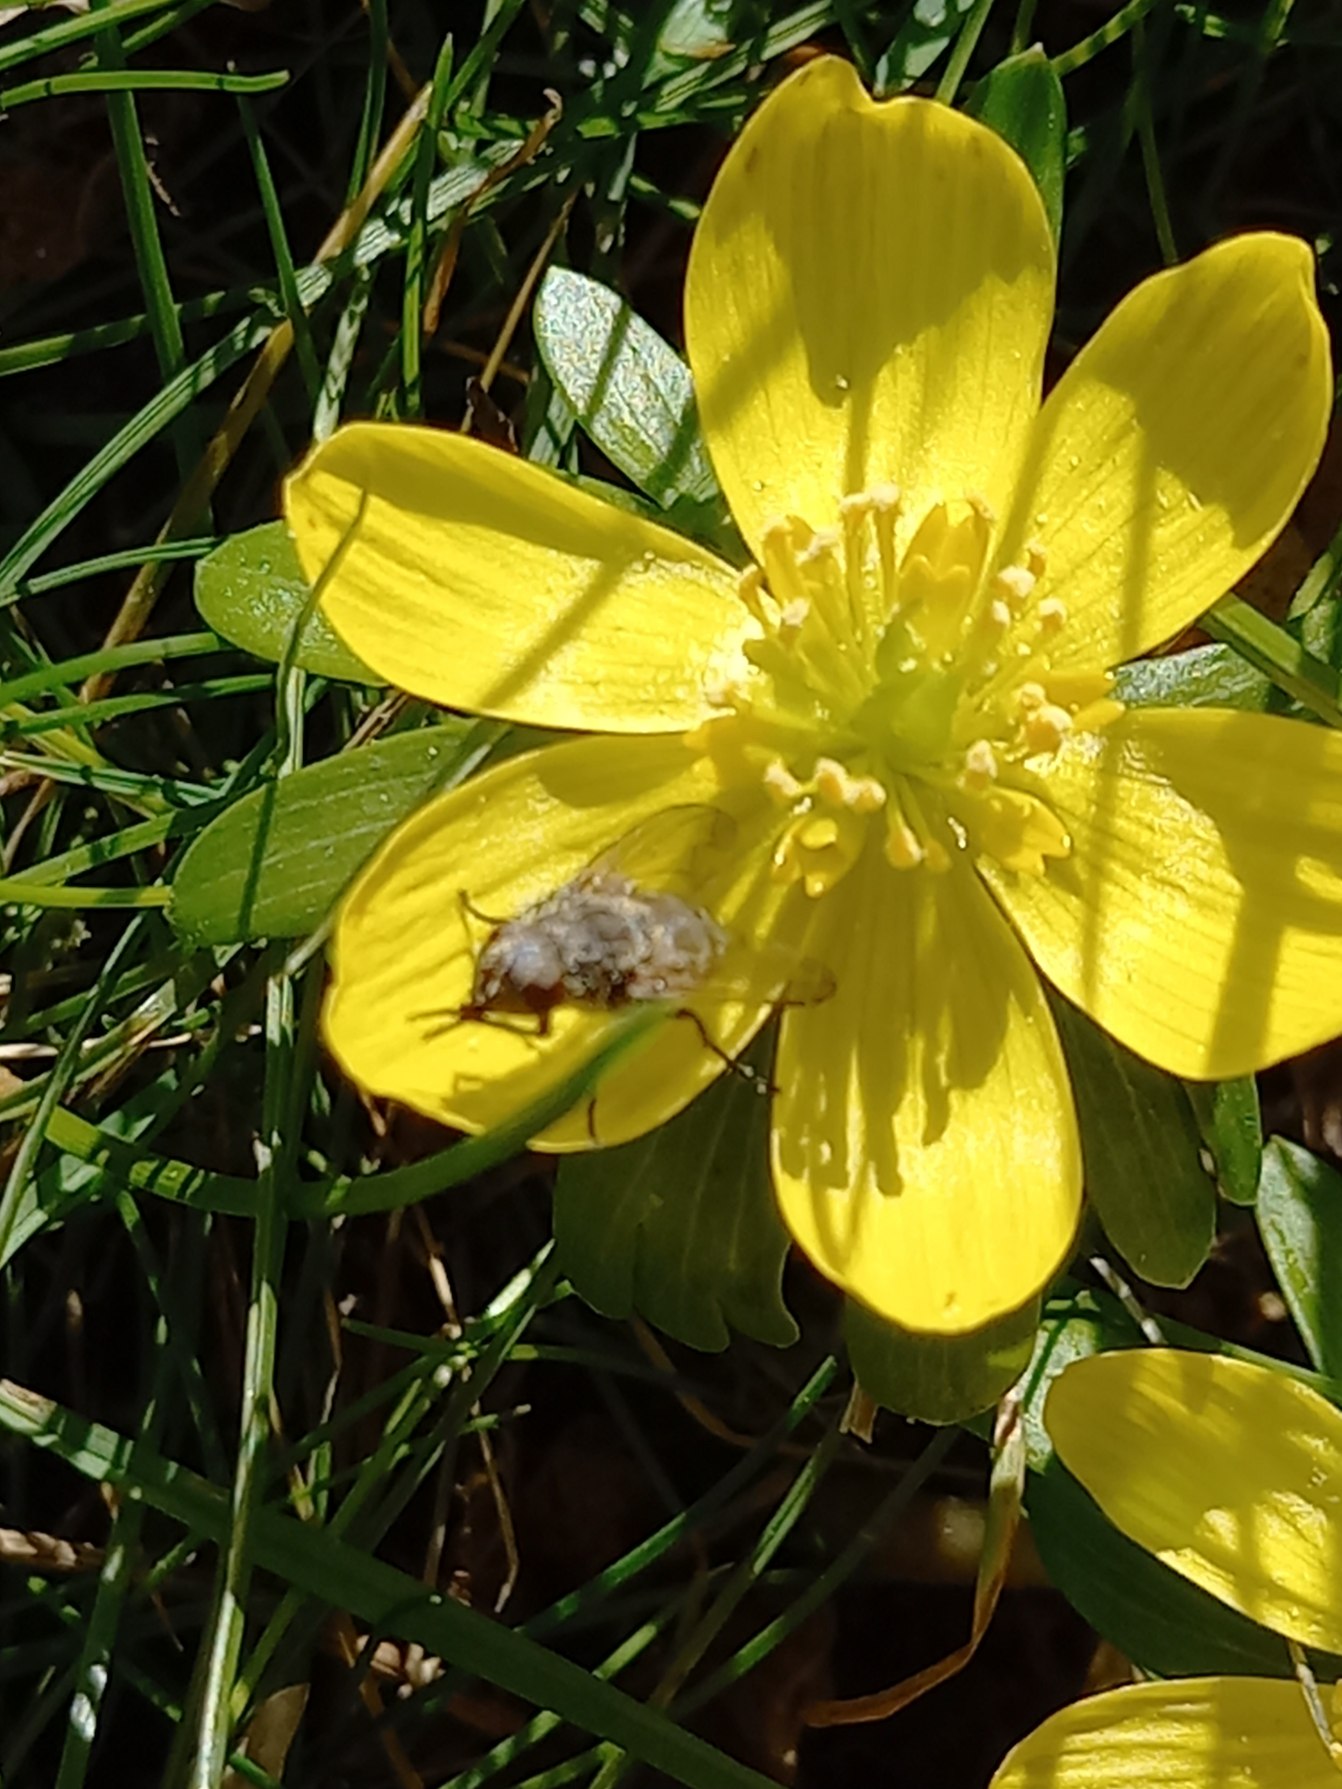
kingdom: Plantae
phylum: Tracheophyta
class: Magnoliopsida
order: Ranunculales
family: Ranunculaceae
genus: Eranthis
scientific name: Eranthis hyemalis
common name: Erantis
